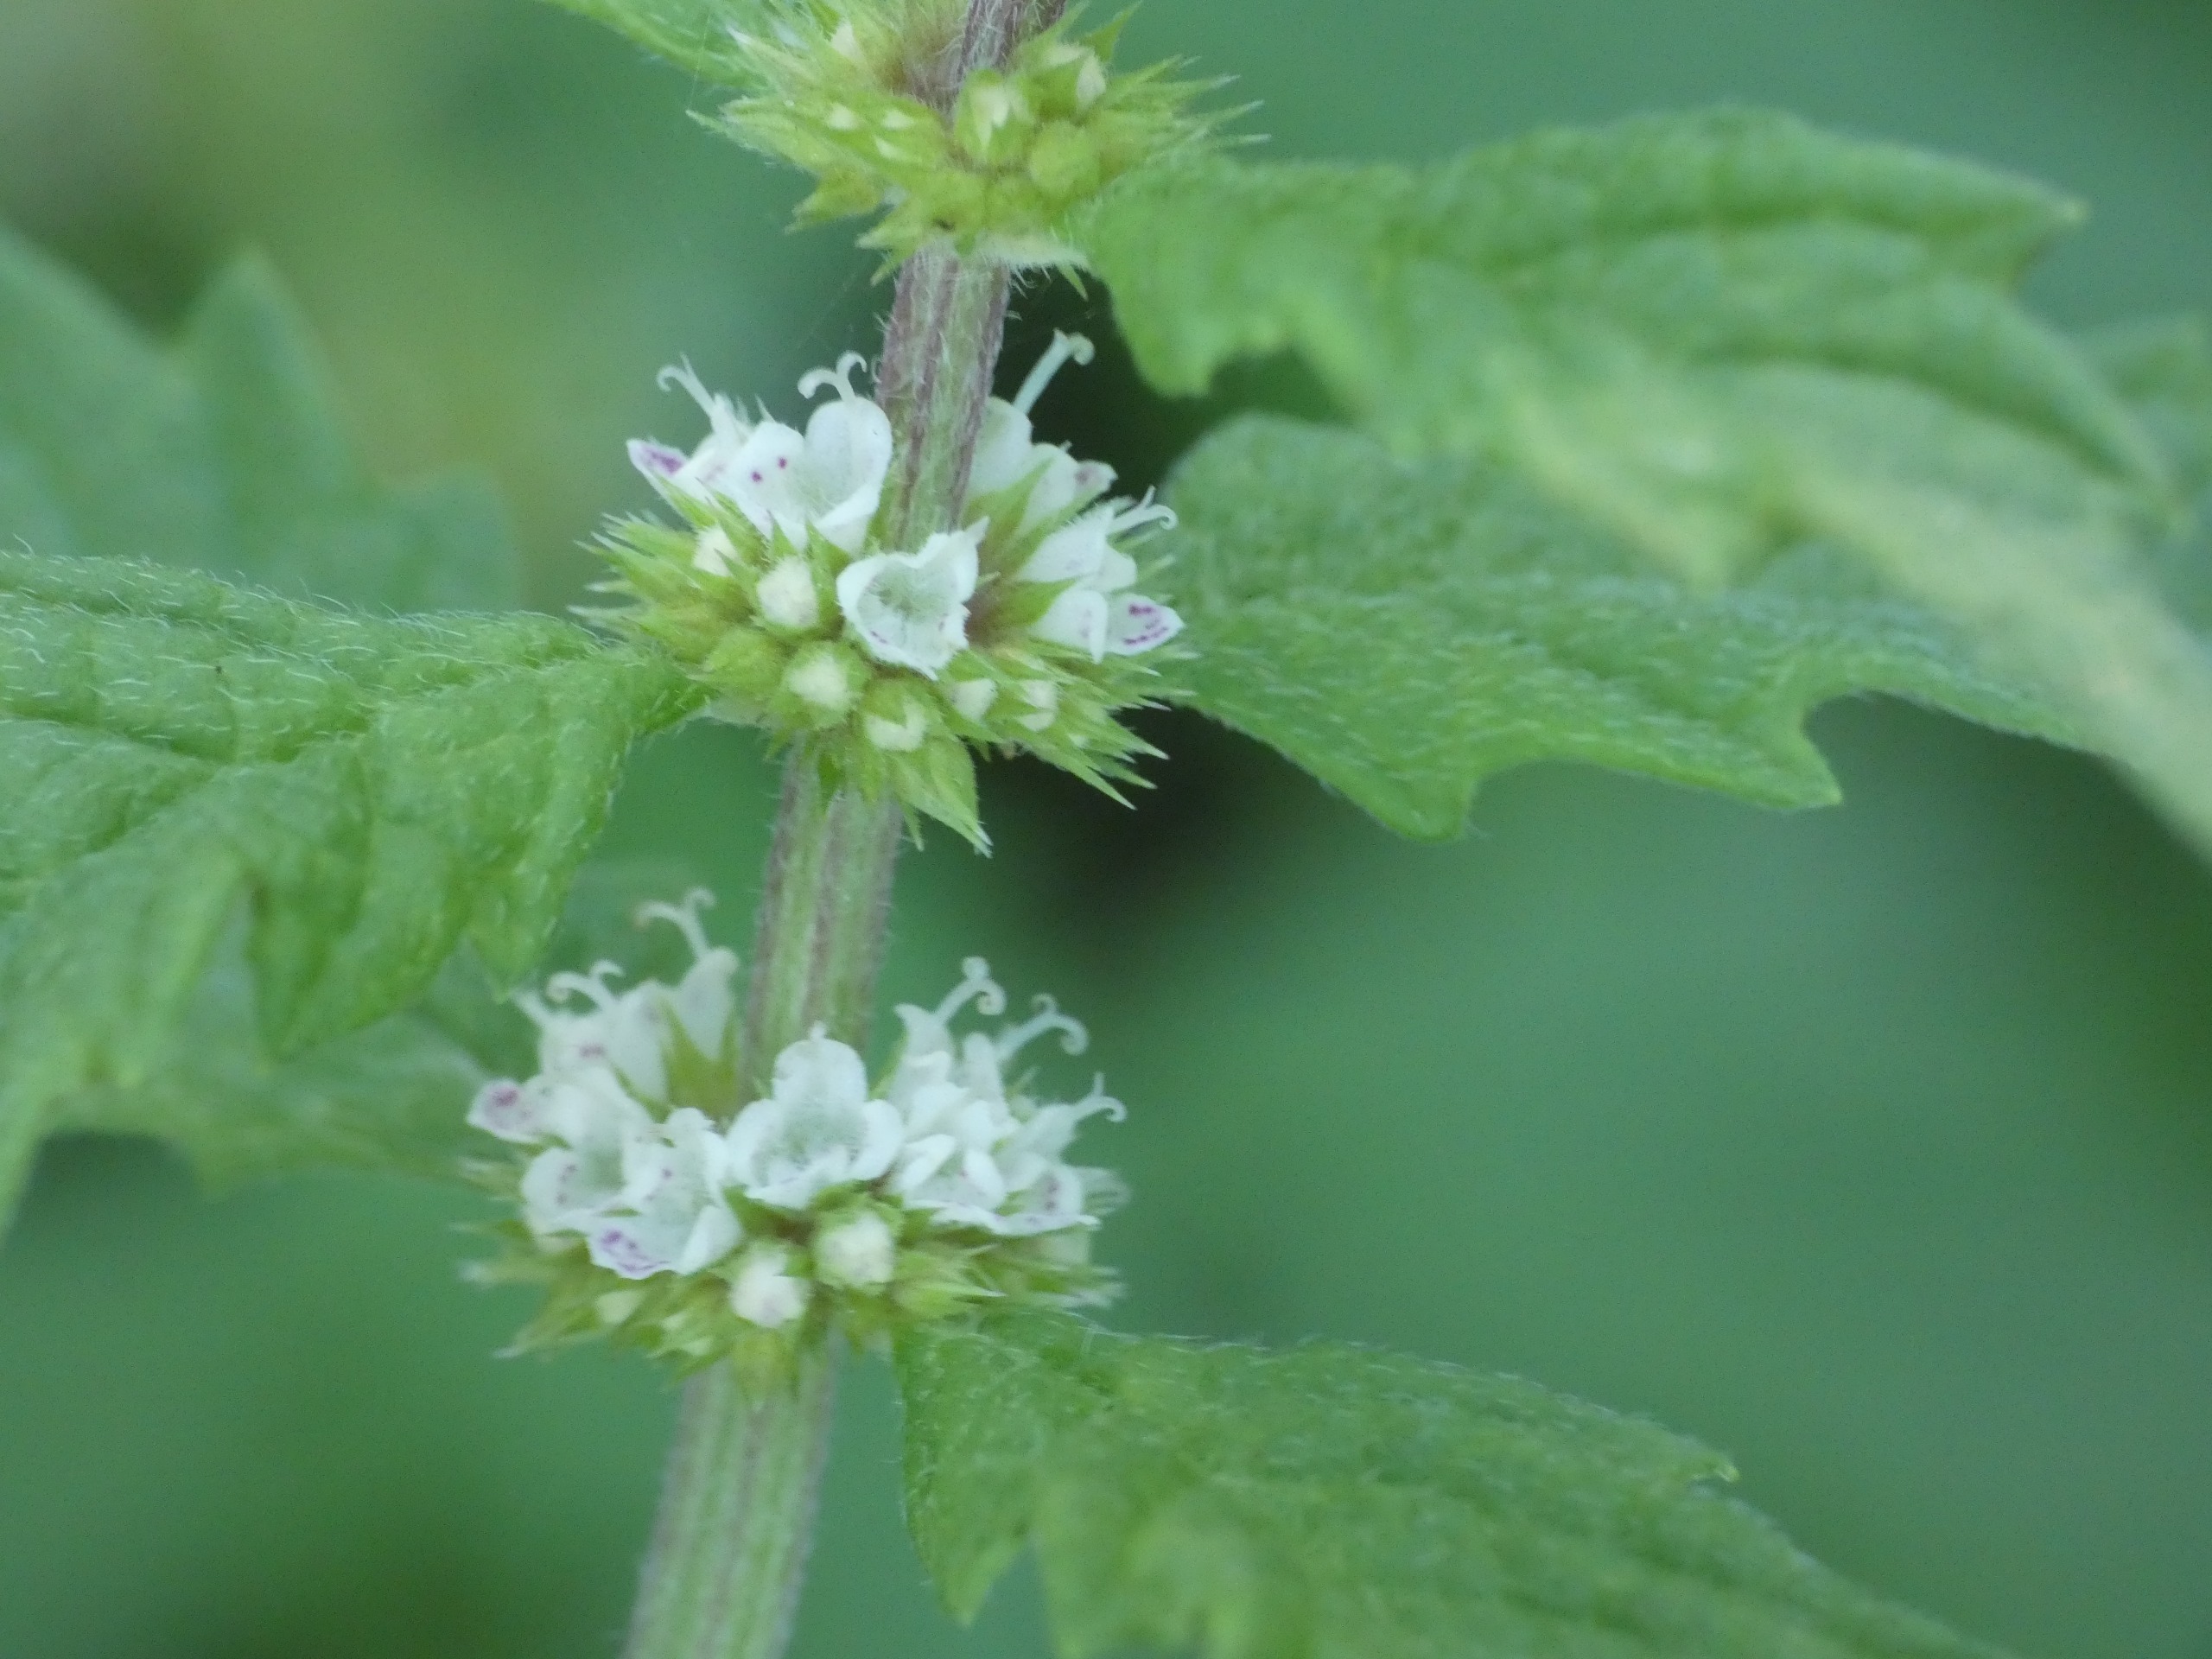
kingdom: Plantae
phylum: Tracheophyta
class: Magnoliopsida
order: Lamiales
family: Lamiaceae
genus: Lycopus
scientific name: Lycopus europaeus
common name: Sværtevæld
